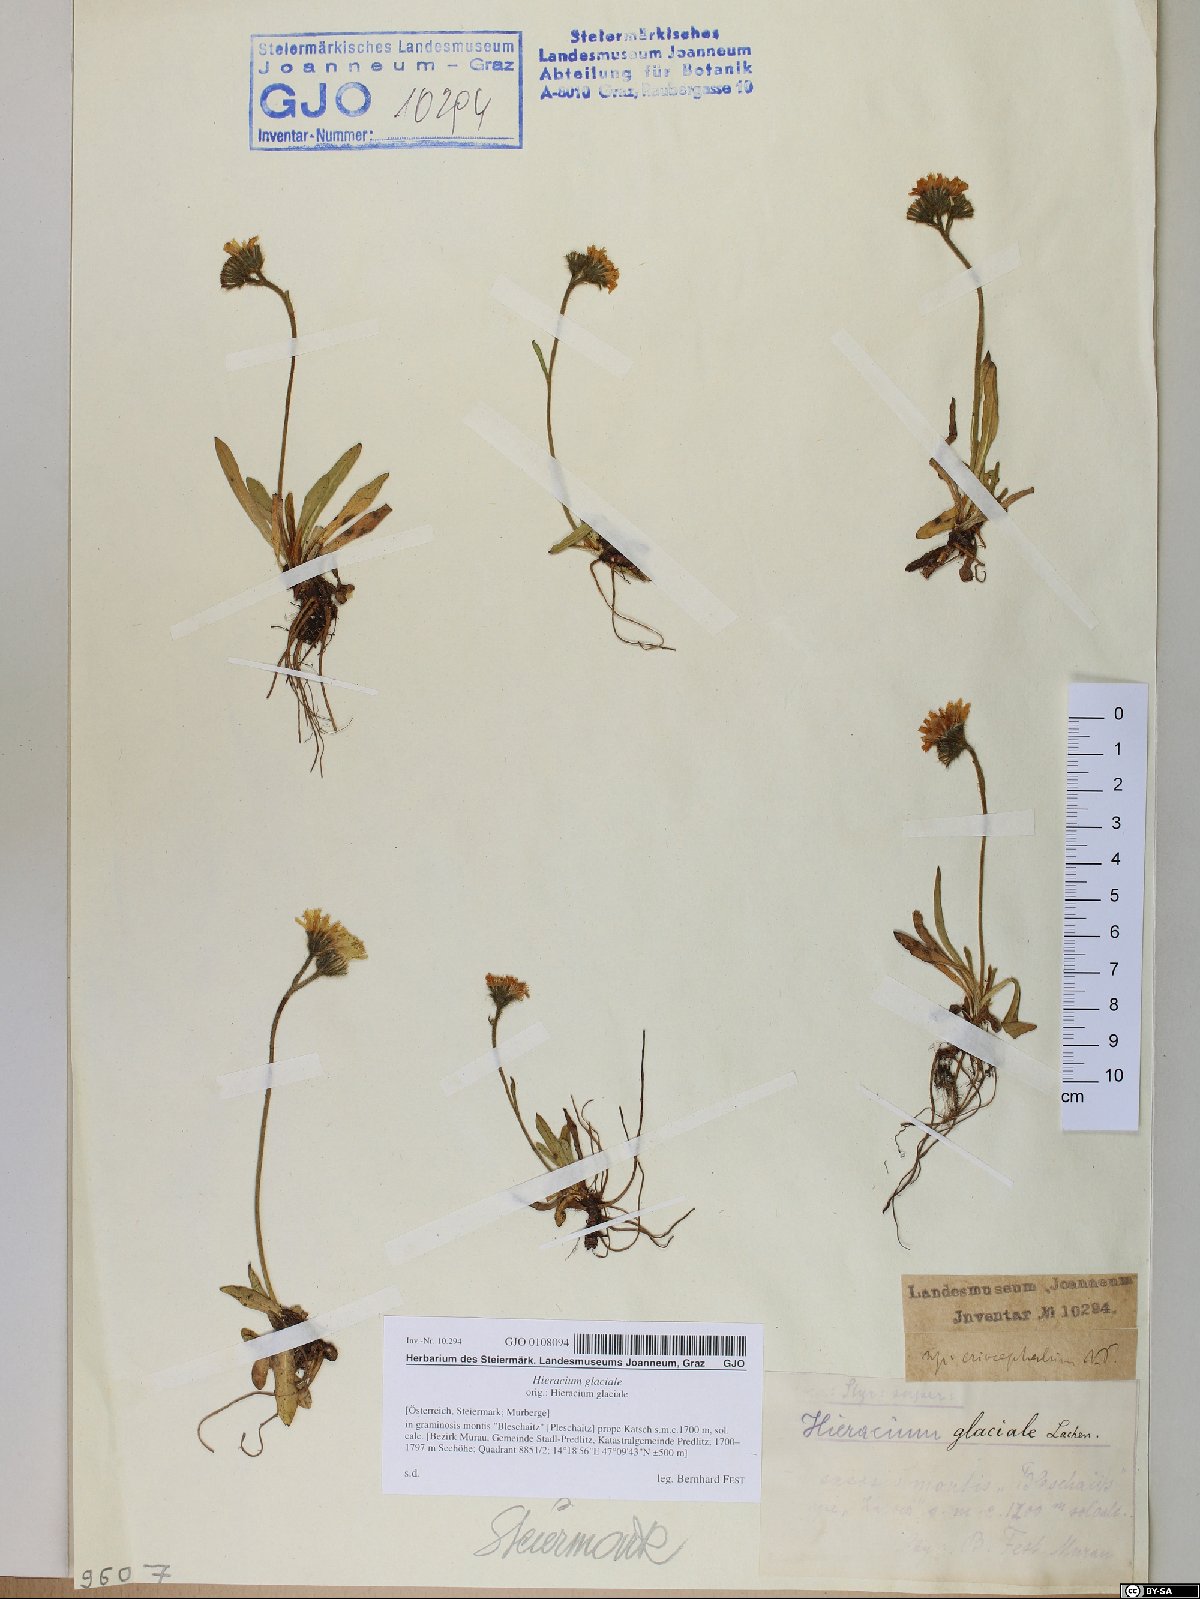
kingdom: Plantae
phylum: Tracheophyta
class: Magnoliopsida
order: Asterales
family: Asteraceae
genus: Pilosella
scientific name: Pilosella glacialis
